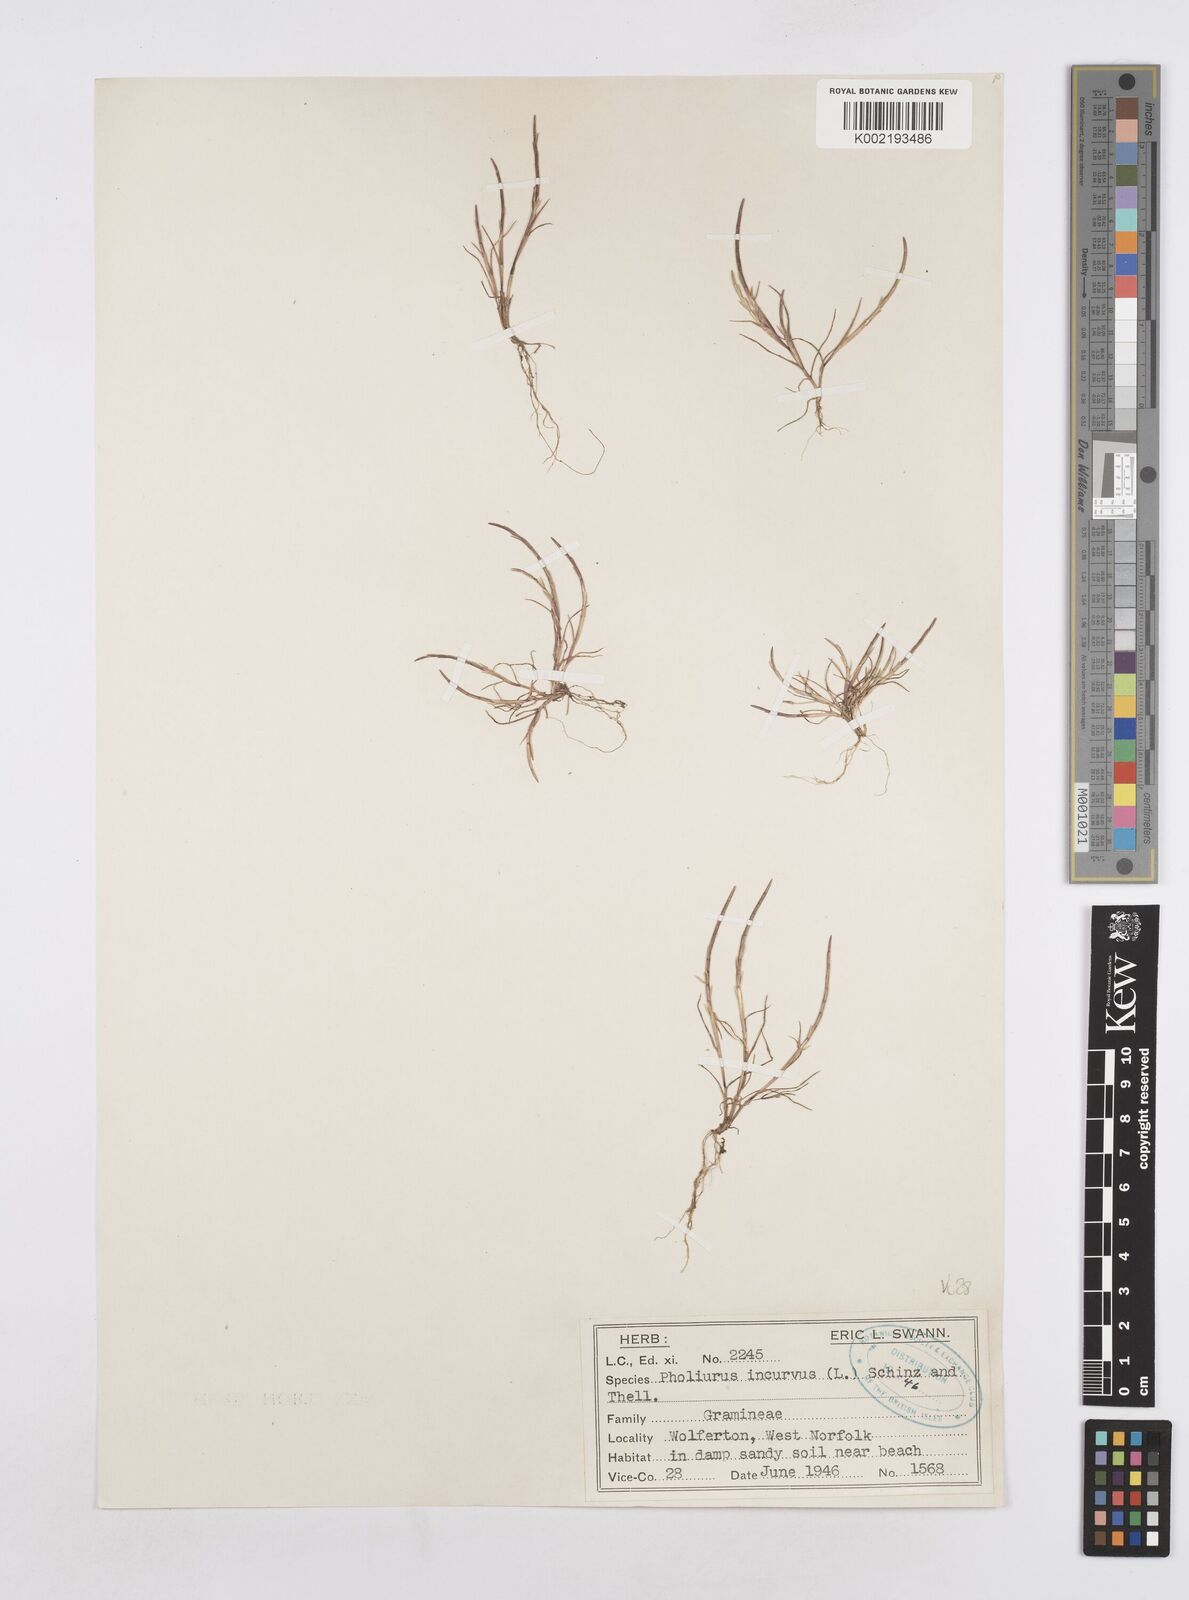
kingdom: Plantae
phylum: Tracheophyta
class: Liliopsida
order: Poales
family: Poaceae
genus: Parapholis
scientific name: Parapholis incurva
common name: Curved sicklegrass
